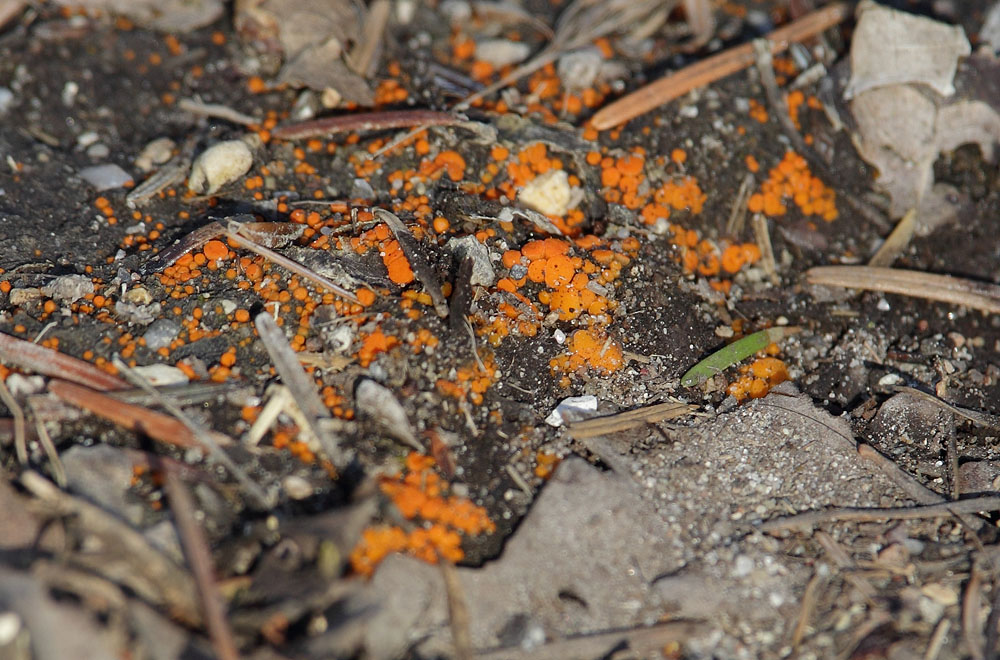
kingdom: Fungi
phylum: Ascomycota
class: Pezizomycetes
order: Pezizales
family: Pyronemataceae
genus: Byssonectria
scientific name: Byssonectria terrestris
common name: hjortebæger
